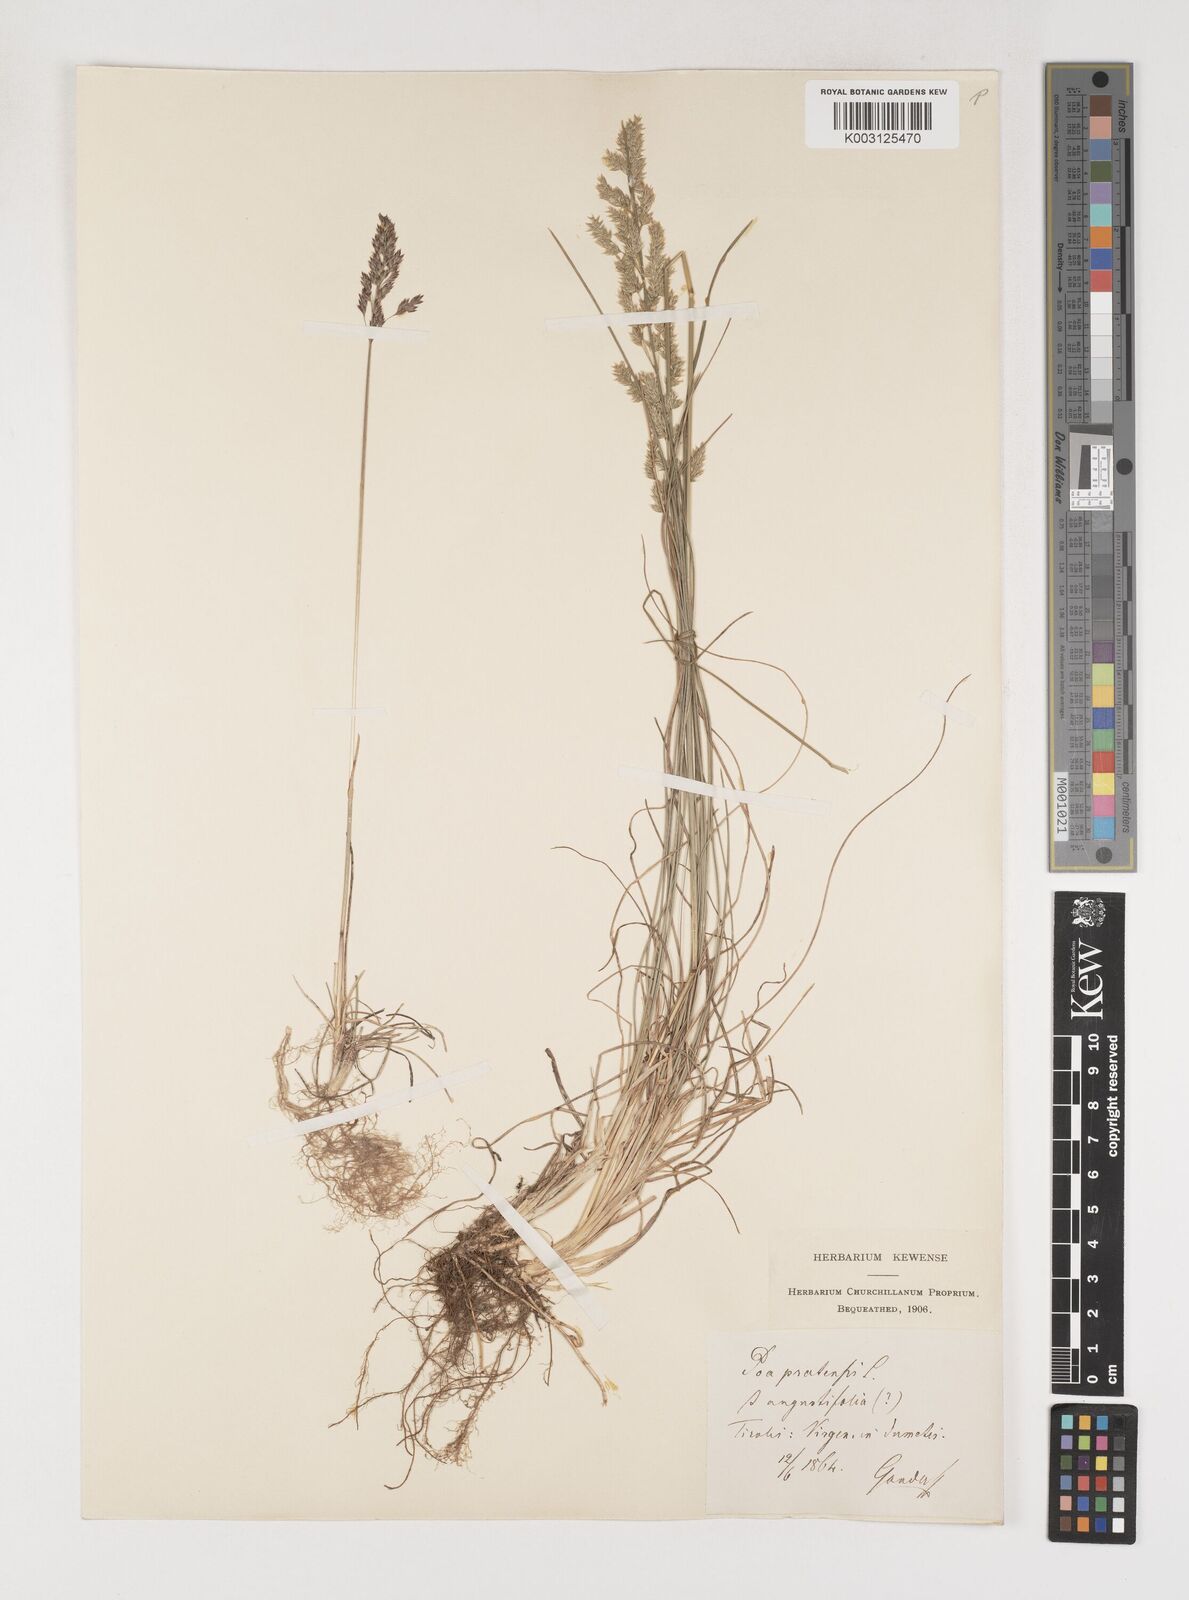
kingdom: Plantae
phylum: Tracheophyta
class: Liliopsida
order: Poales
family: Poaceae
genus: Poa
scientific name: Poa angustifolia
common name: Narrow-leaved meadow-grass
